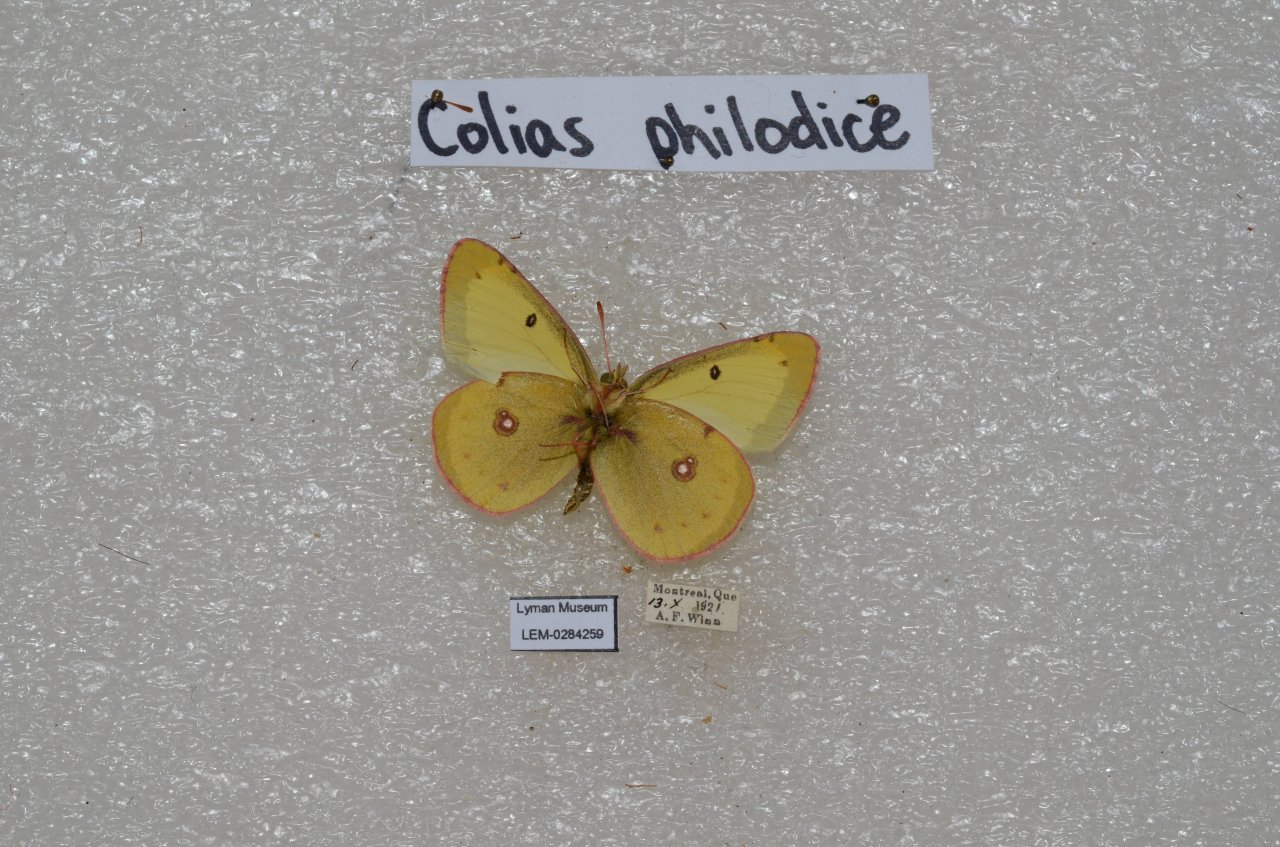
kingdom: Animalia
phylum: Arthropoda
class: Insecta
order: Lepidoptera
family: Pieridae
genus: Colias
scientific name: Colias philodice
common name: Clouded Sulphur
